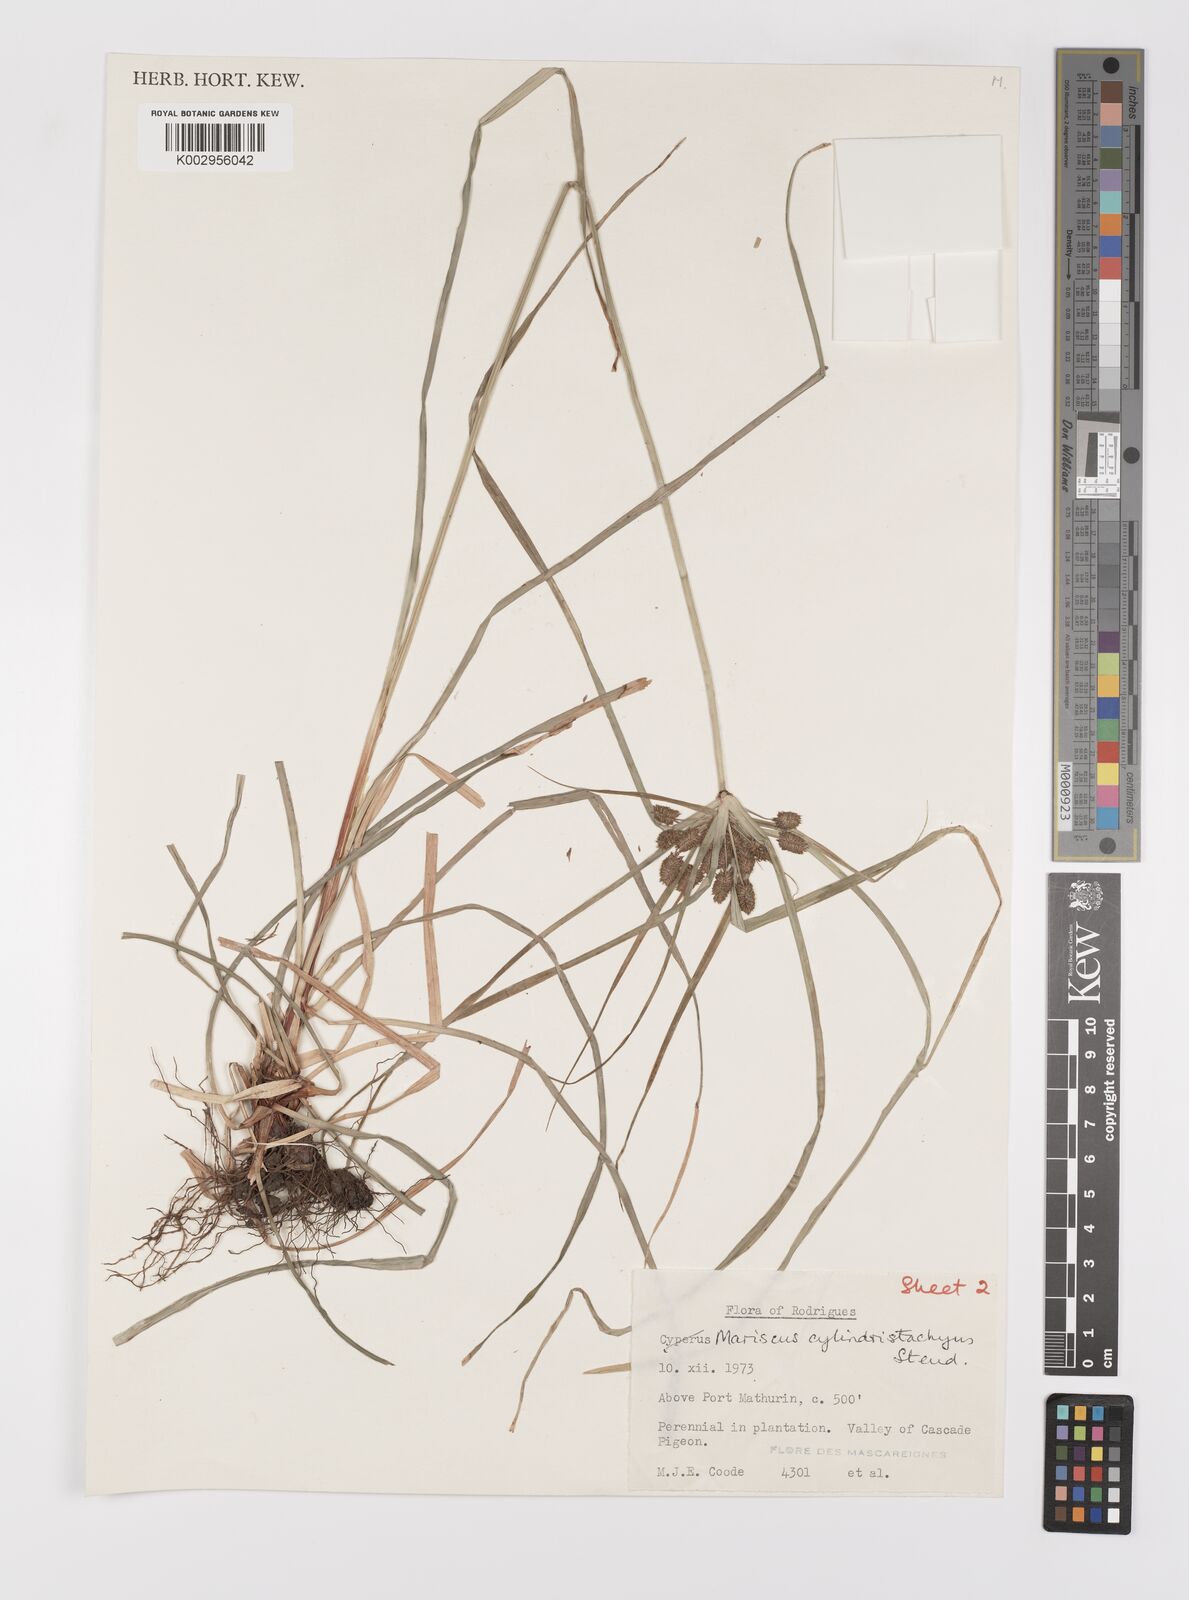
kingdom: Plantae
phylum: Tracheophyta
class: Liliopsida
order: Poales
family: Cyperaceae
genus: Cyperus
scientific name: Cyperus cyperoides
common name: Pacific island flat sedge
